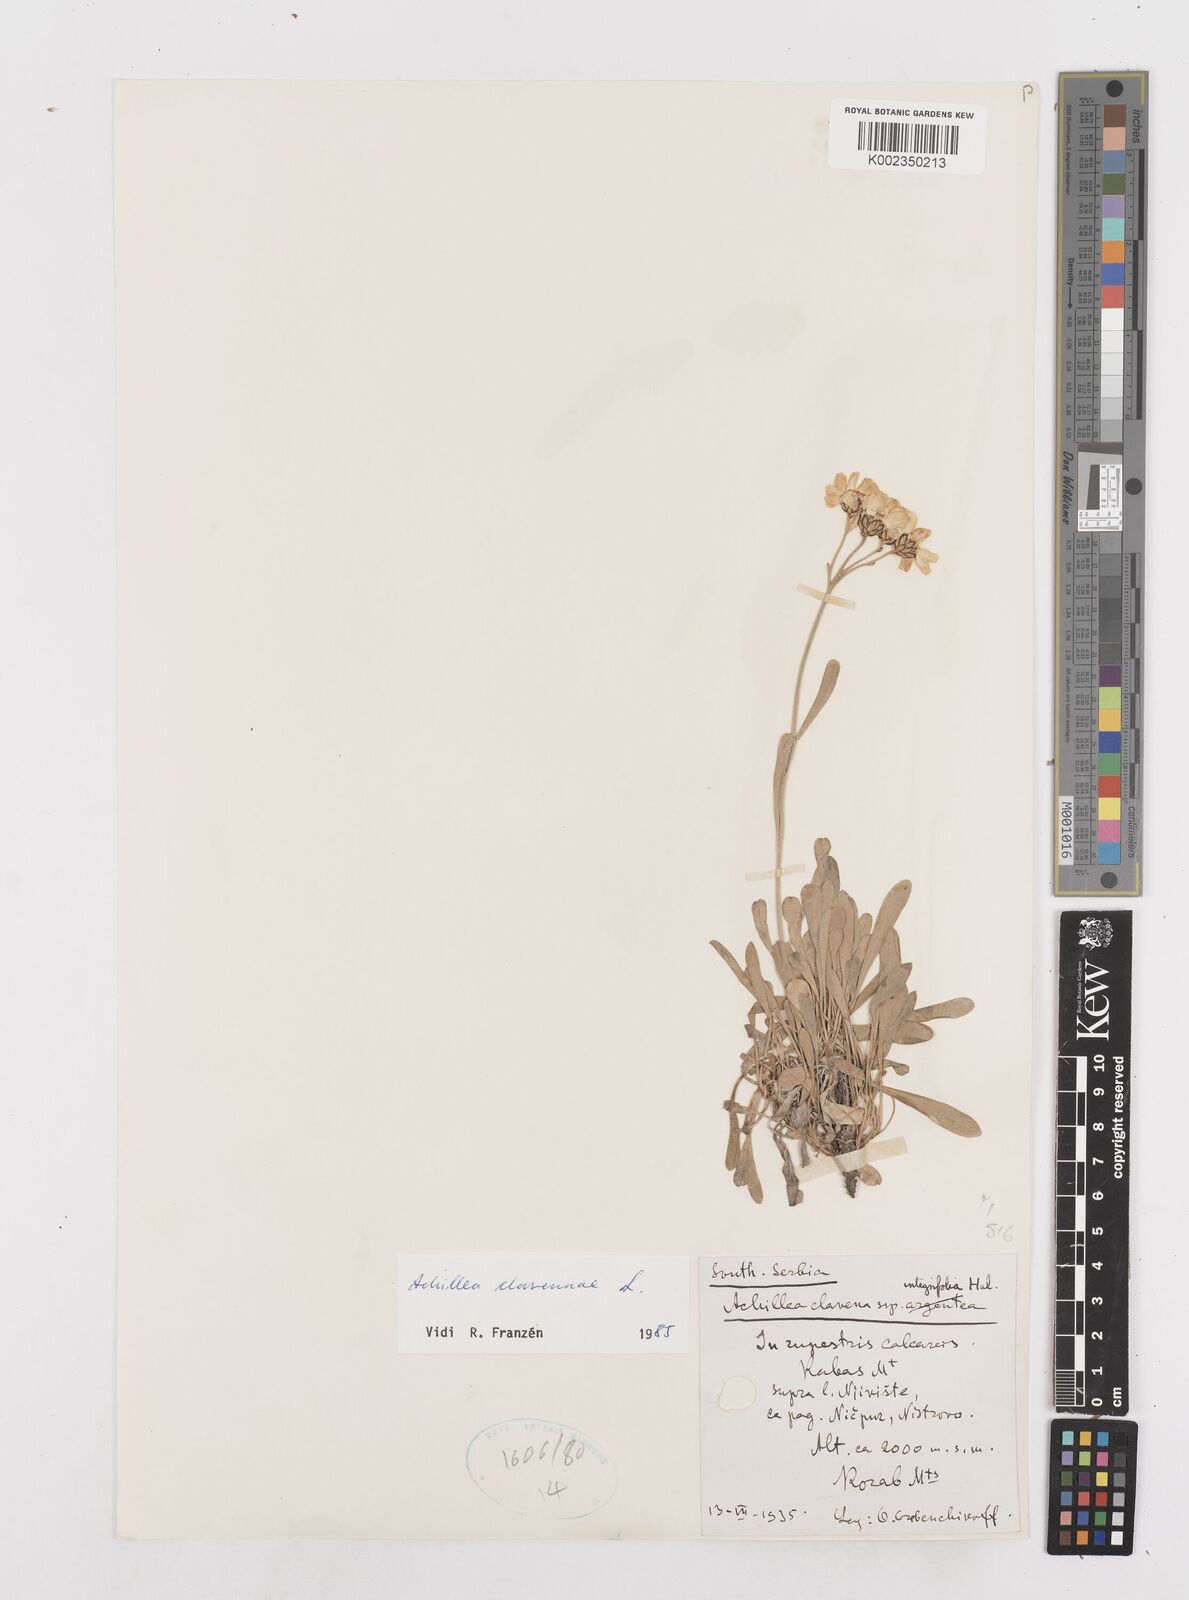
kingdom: Plantae
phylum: Tracheophyta
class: Magnoliopsida
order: Asterales
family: Asteraceae
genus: Achillea
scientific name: Achillea clavennae
